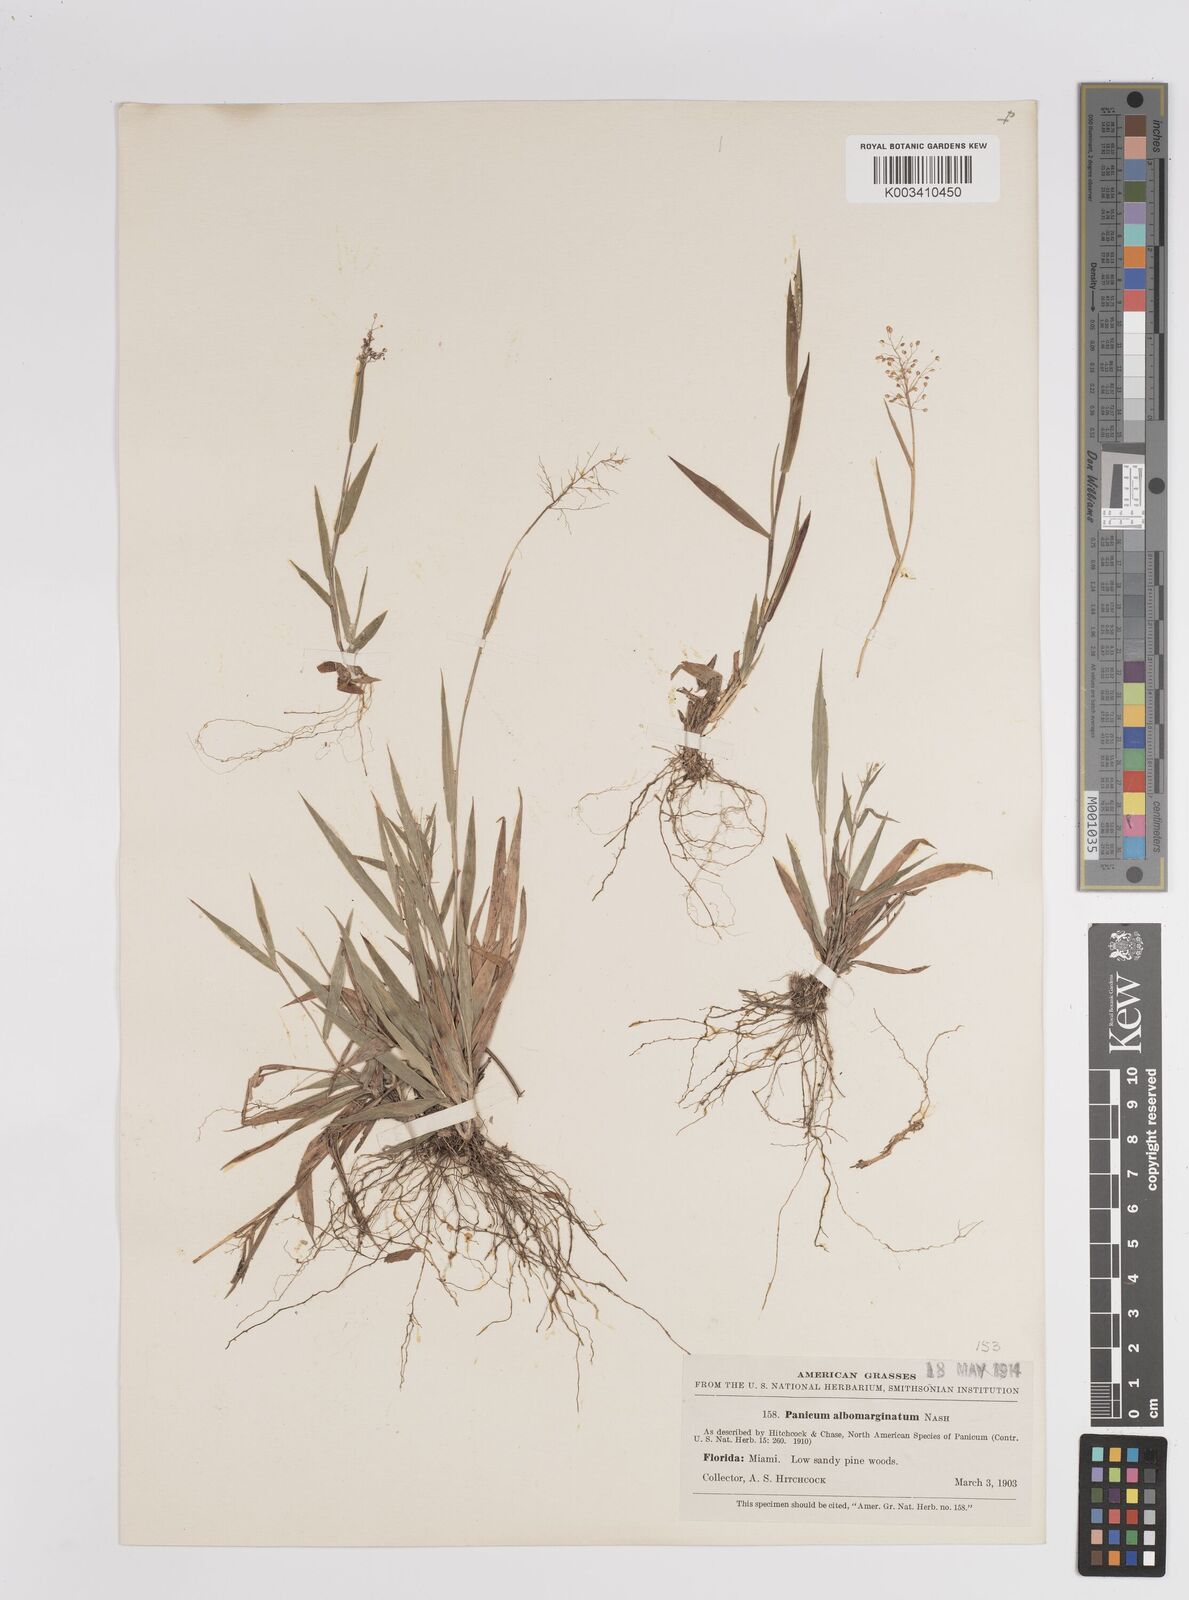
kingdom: Plantae
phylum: Tracheophyta
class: Liliopsida
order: Poales
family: Poaceae
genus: Dichanthelium
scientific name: Dichanthelium ensifolium
